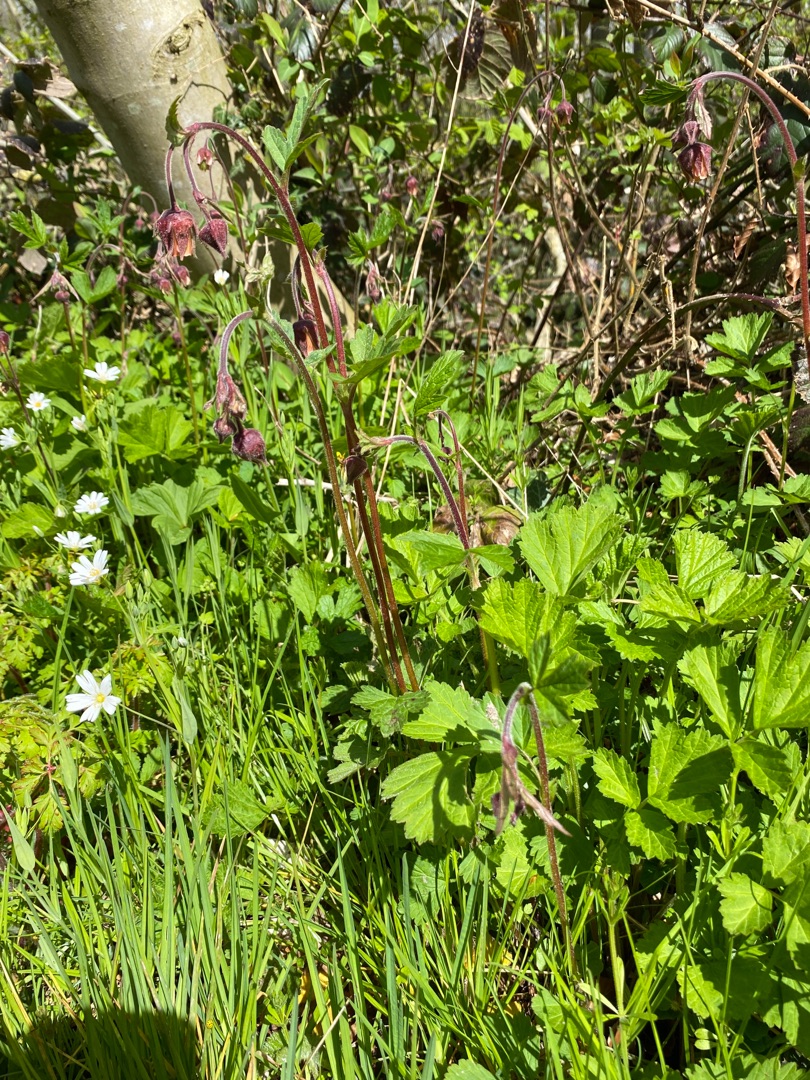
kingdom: Plantae
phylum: Tracheophyta
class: Magnoliopsida
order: Rosales
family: Rosaceae
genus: Geum
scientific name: Geum rivale
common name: Eng-nellikerod
